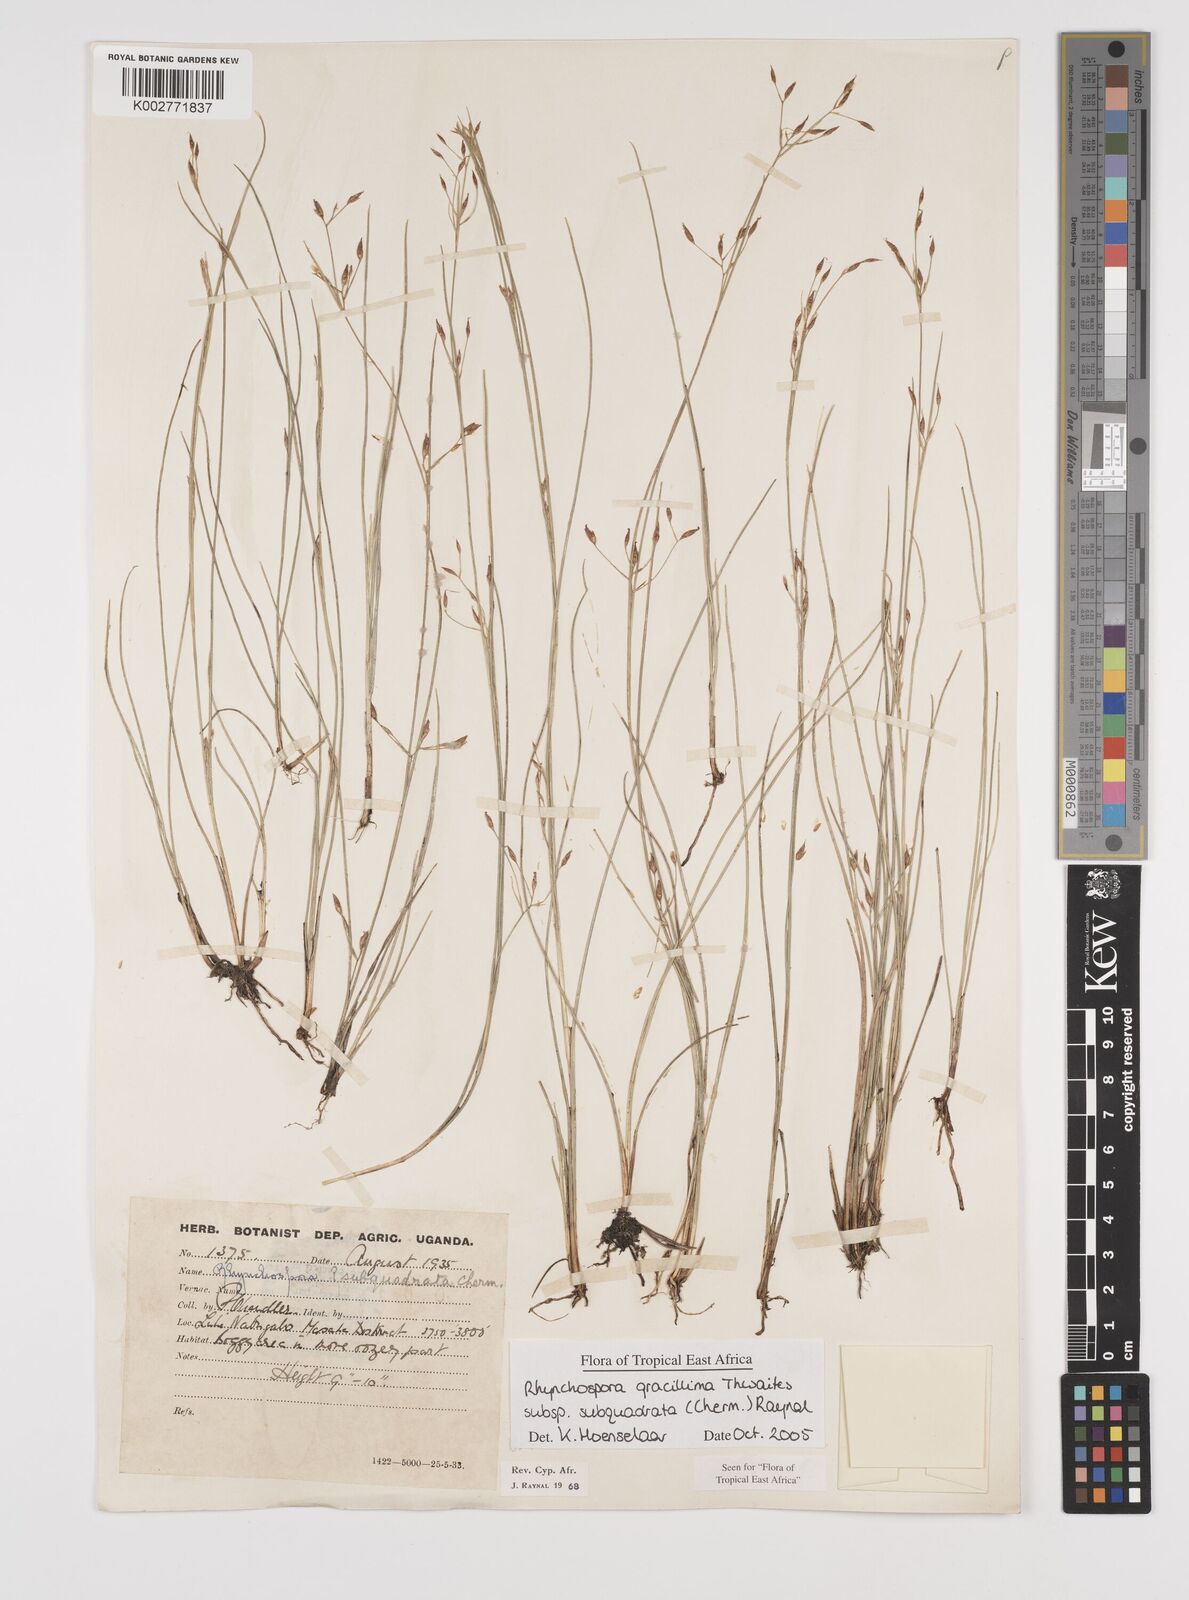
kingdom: Plantae
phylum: Tracheophyta
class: Liliopsida
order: Poales
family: Cyperaceae
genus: Rhynchospora
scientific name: Rhynchospora gracillima
